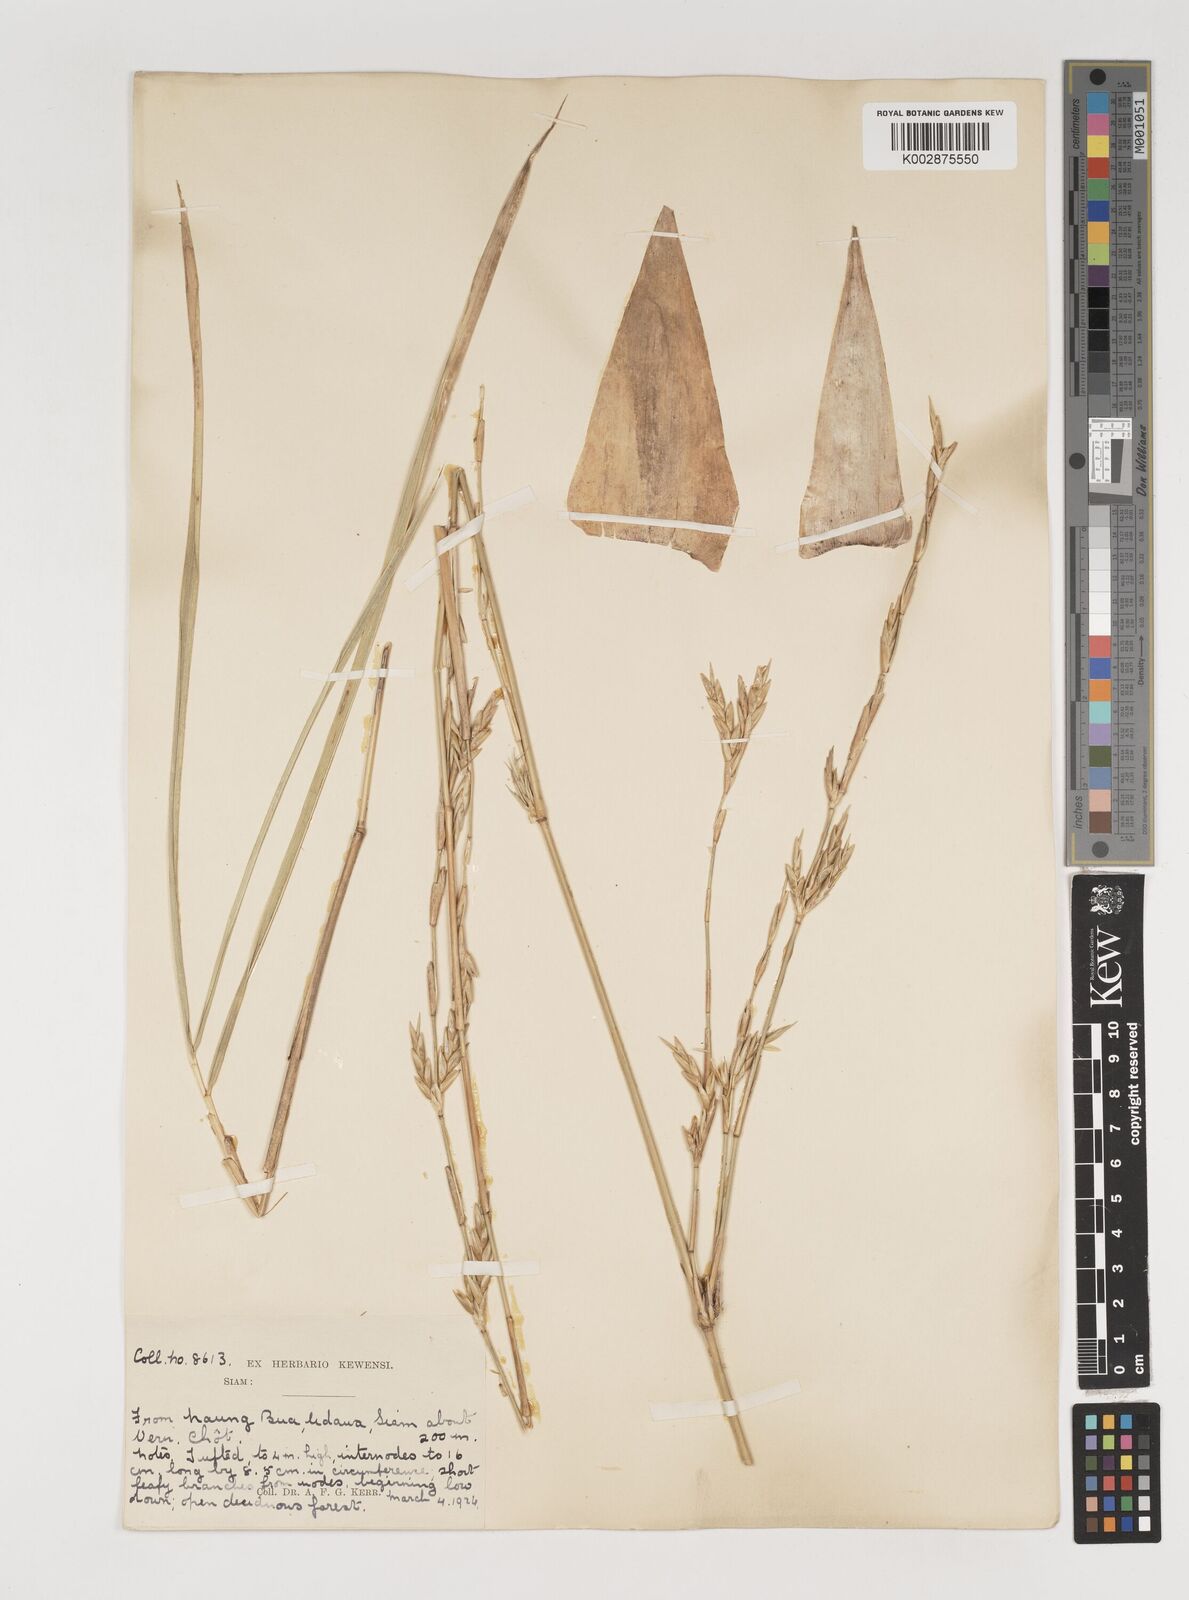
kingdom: Plantae
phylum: Tracheophyta
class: Liliopsida
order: Poales
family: Poaceae
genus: Vietnamosasa
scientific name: Vietnamosasa pusilla
